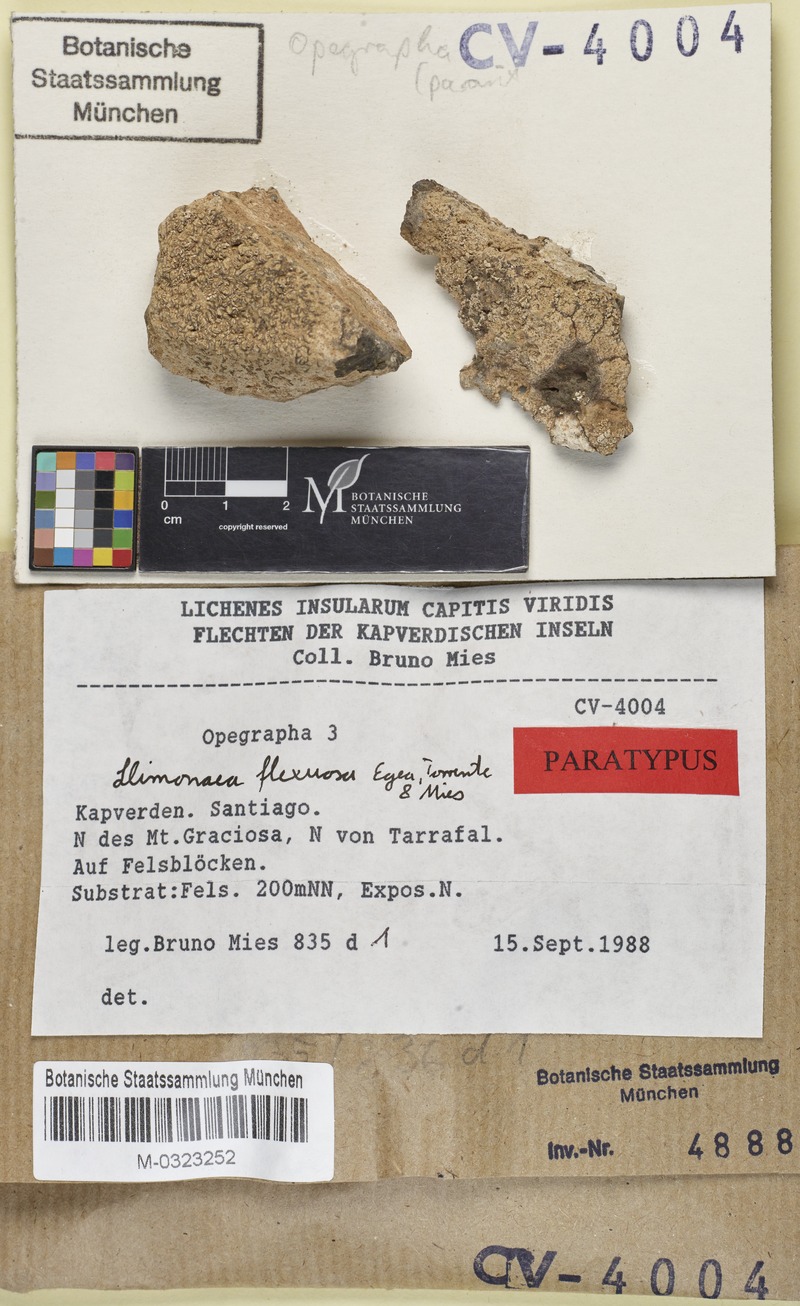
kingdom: Fungi
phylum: Ascomycota
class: Arthoniomycetes
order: Arthoniales
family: Opegraphaceae
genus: Llimonaea
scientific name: Llimonaea flexuosa
